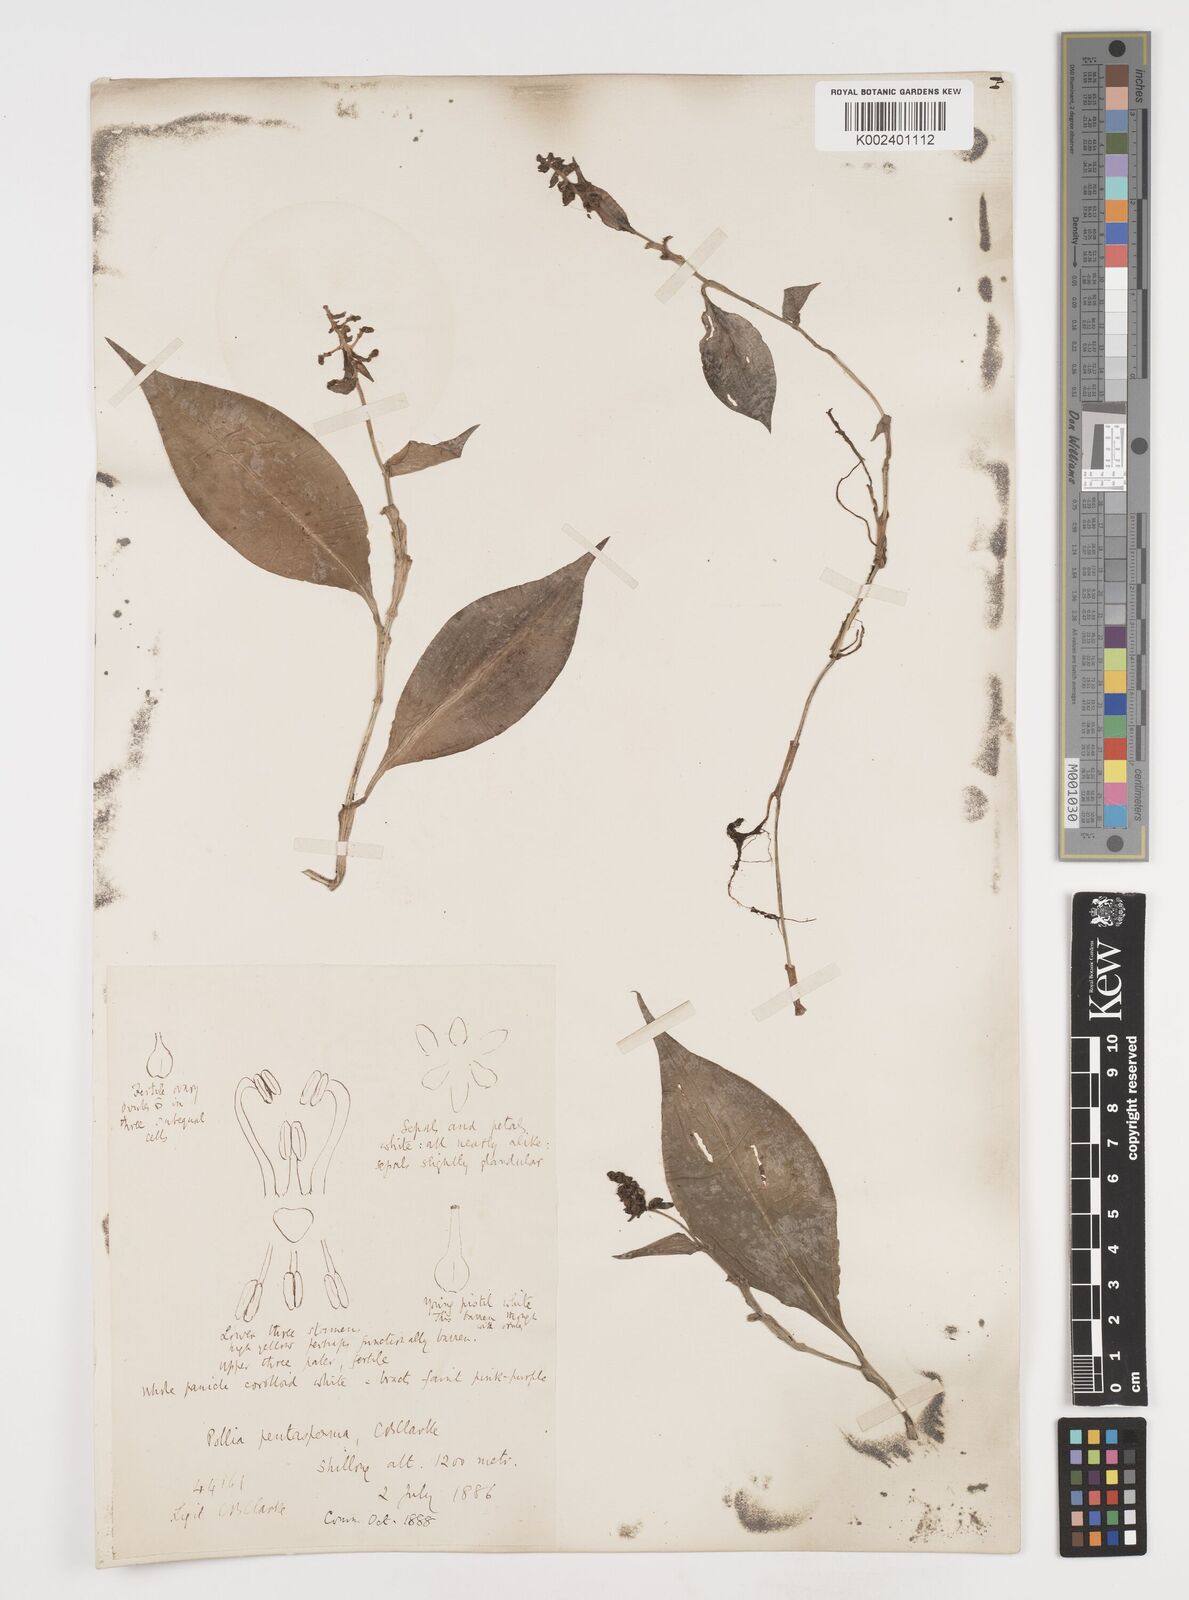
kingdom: Plantae
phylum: Tracheophyta
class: Liliopsida
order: Commelinales
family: Commelinaceae
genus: Pollia
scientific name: Pollia pentasperma
